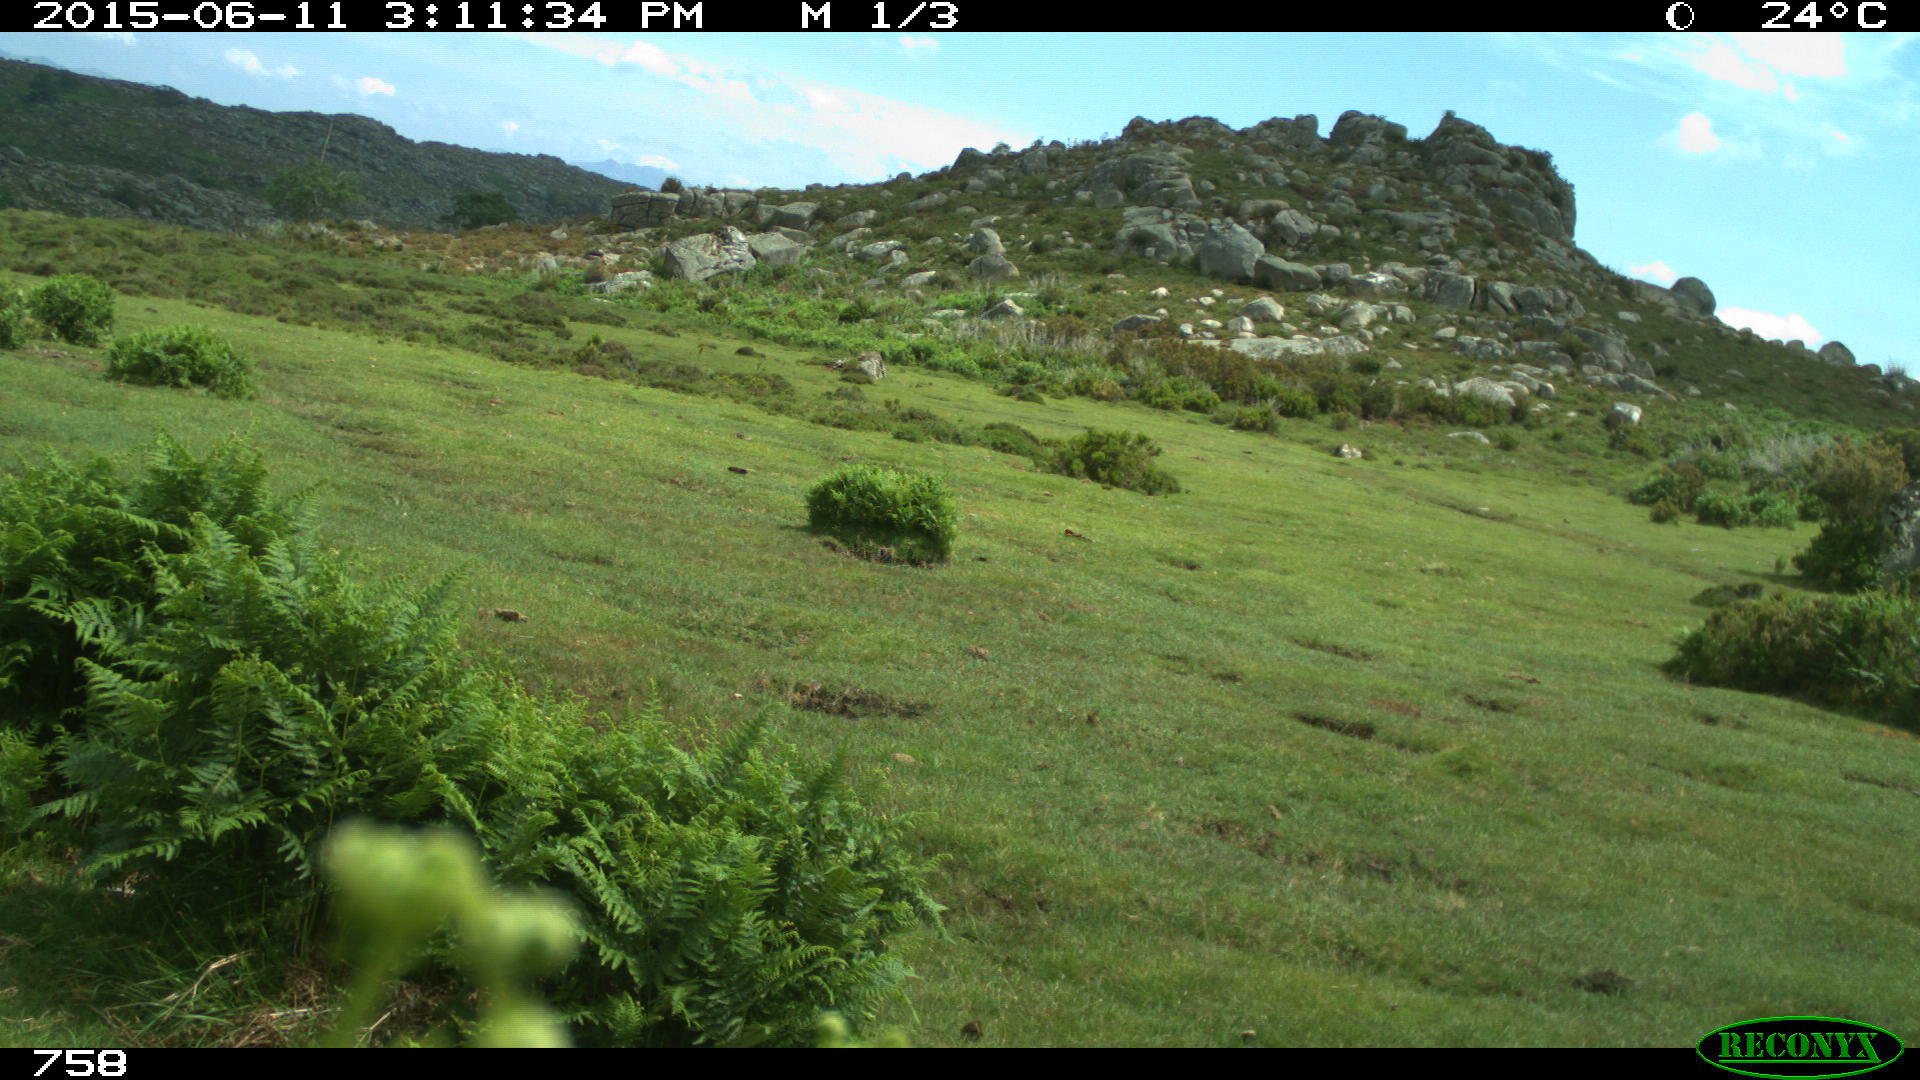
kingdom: Animalia
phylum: Chordata
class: Mammalia
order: Artiodactyla
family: Bovidae
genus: Bos
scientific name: Bos taurus
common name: Domesticated cattle
